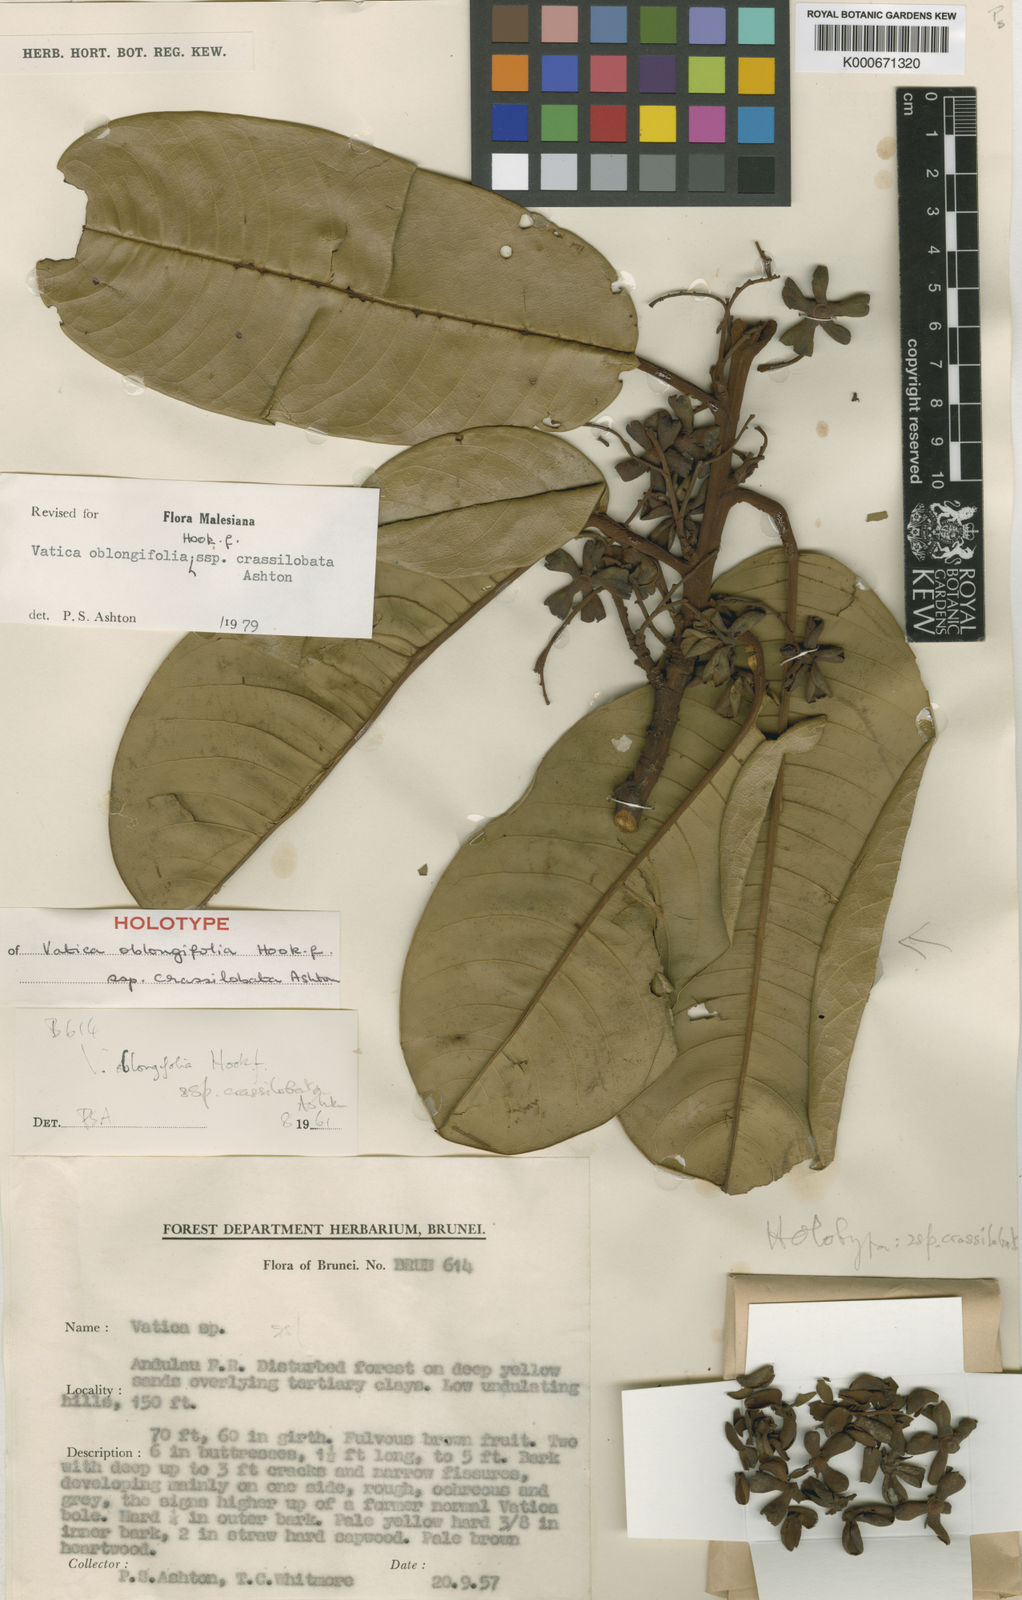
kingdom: Plantae
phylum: Tracheophyta
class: Magnoliopsida
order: Malvales
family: Dipterocarpaceae
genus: Vatica
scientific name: Vatica oblongifolia
